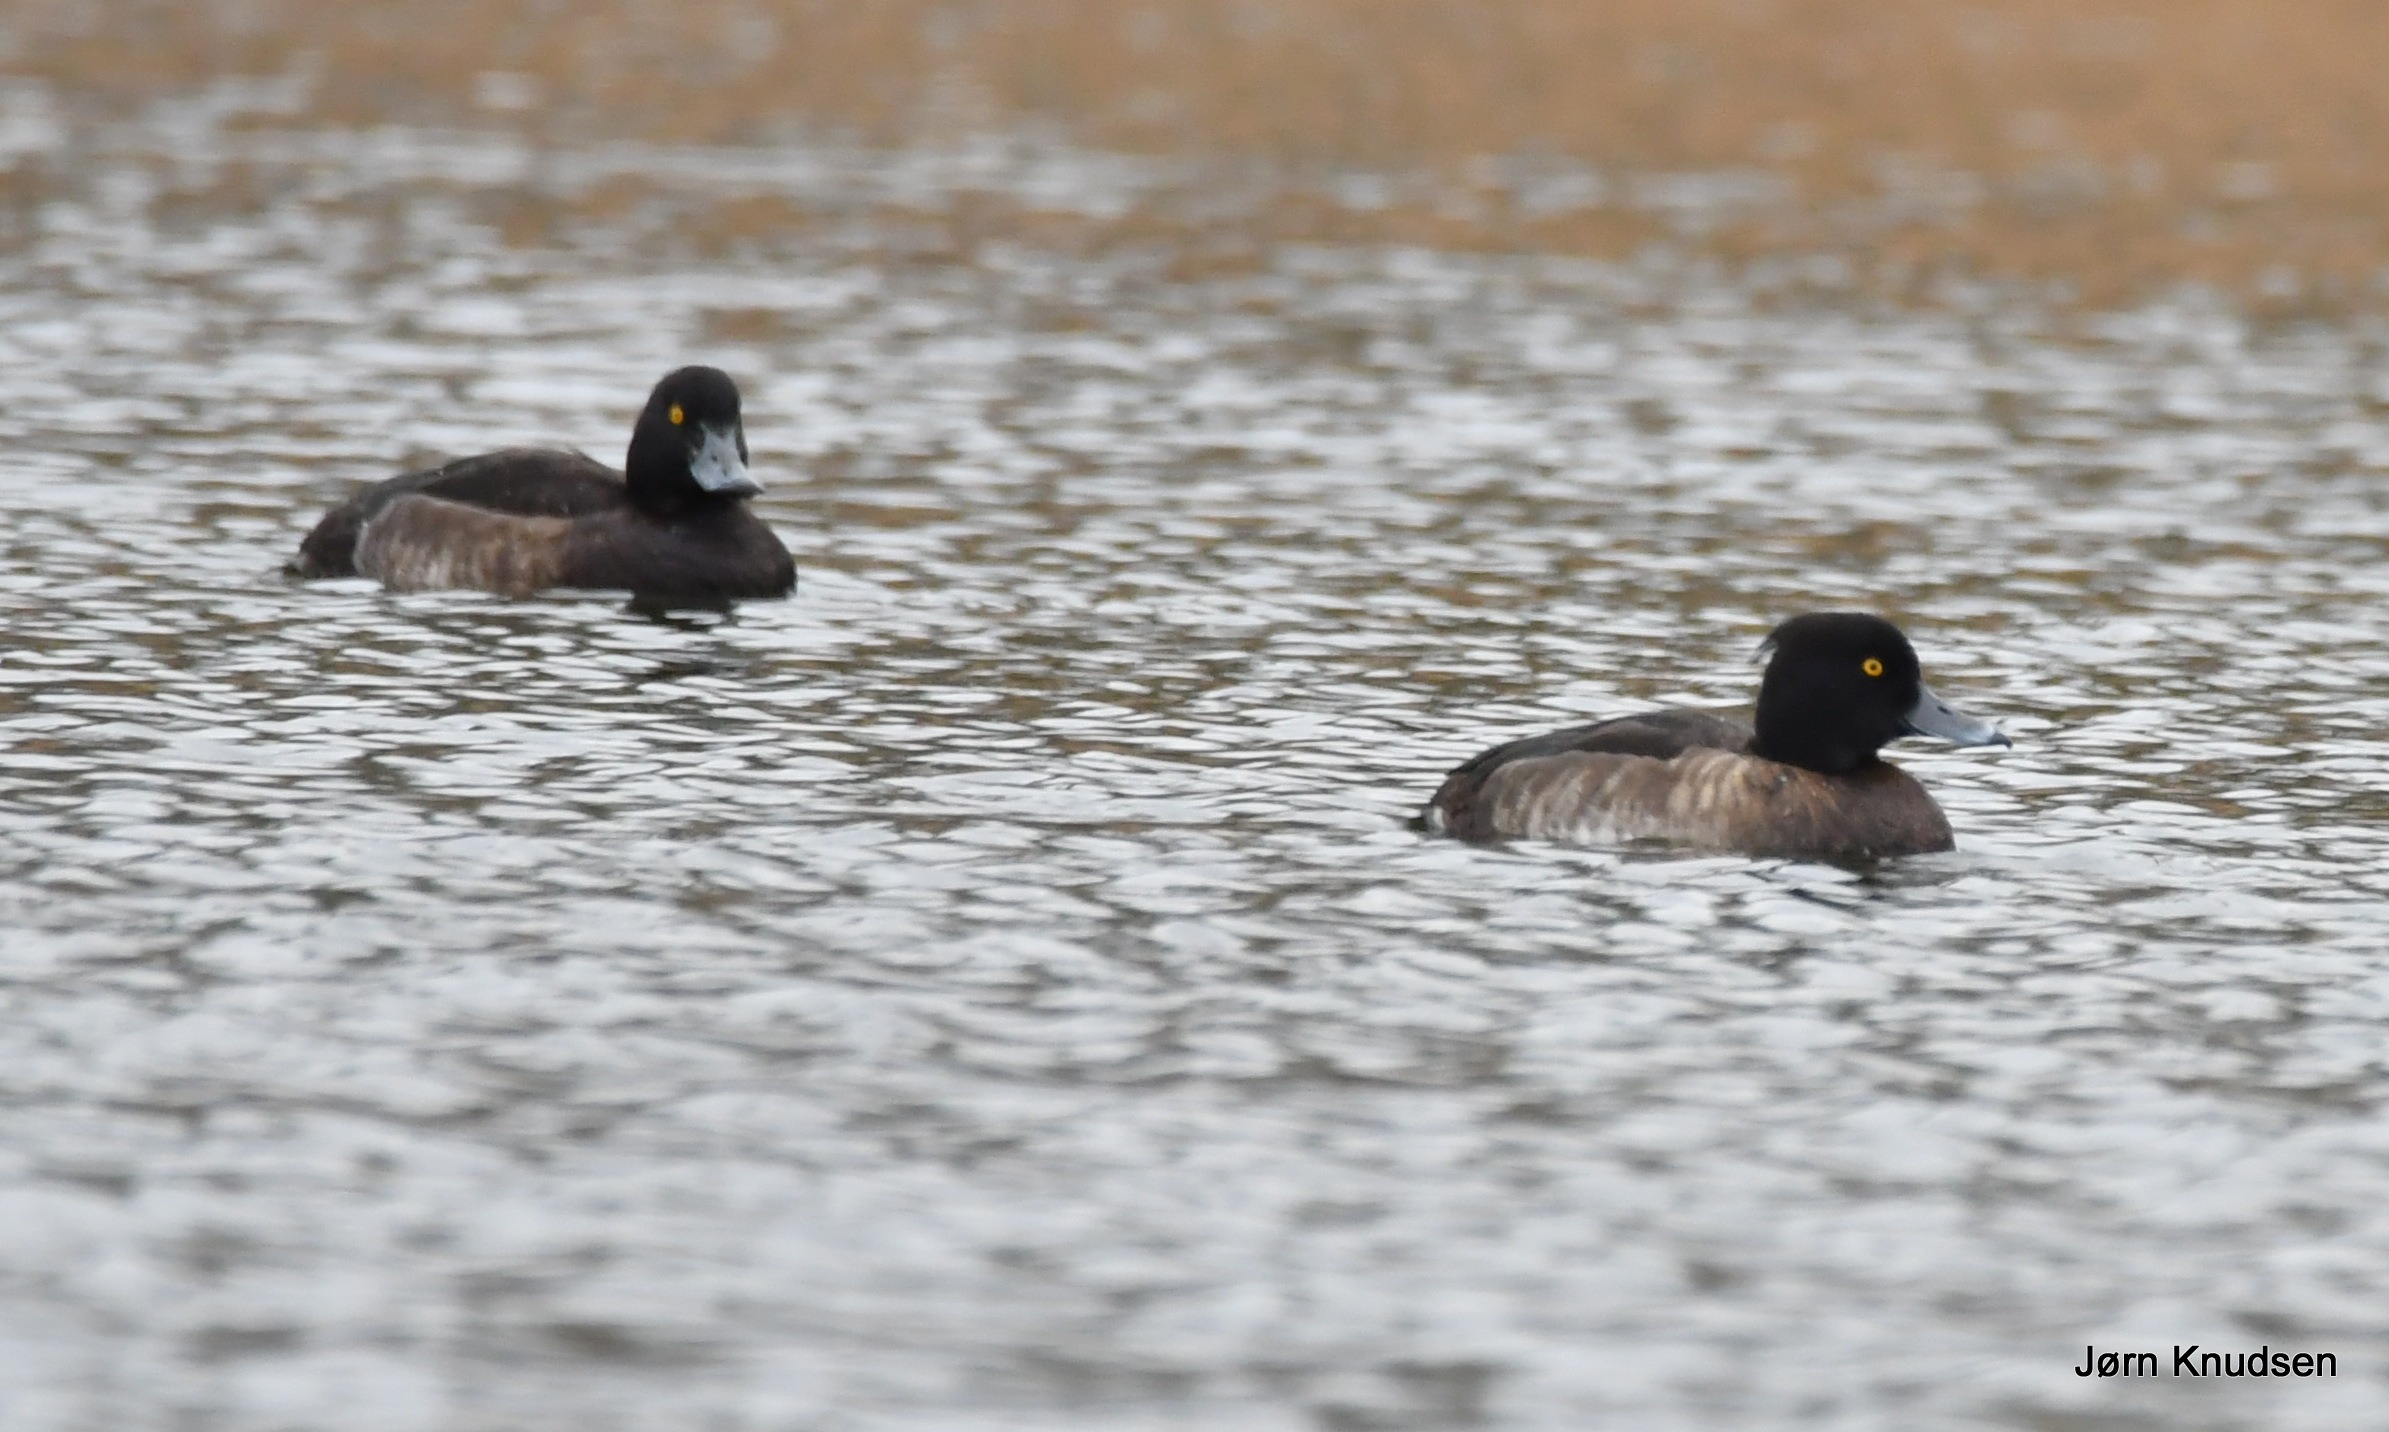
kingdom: Animalia
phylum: Chordata
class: Aves
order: Anseriformes
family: Anatidae
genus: Aythya
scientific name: Aythya fuligula
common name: Troldand
